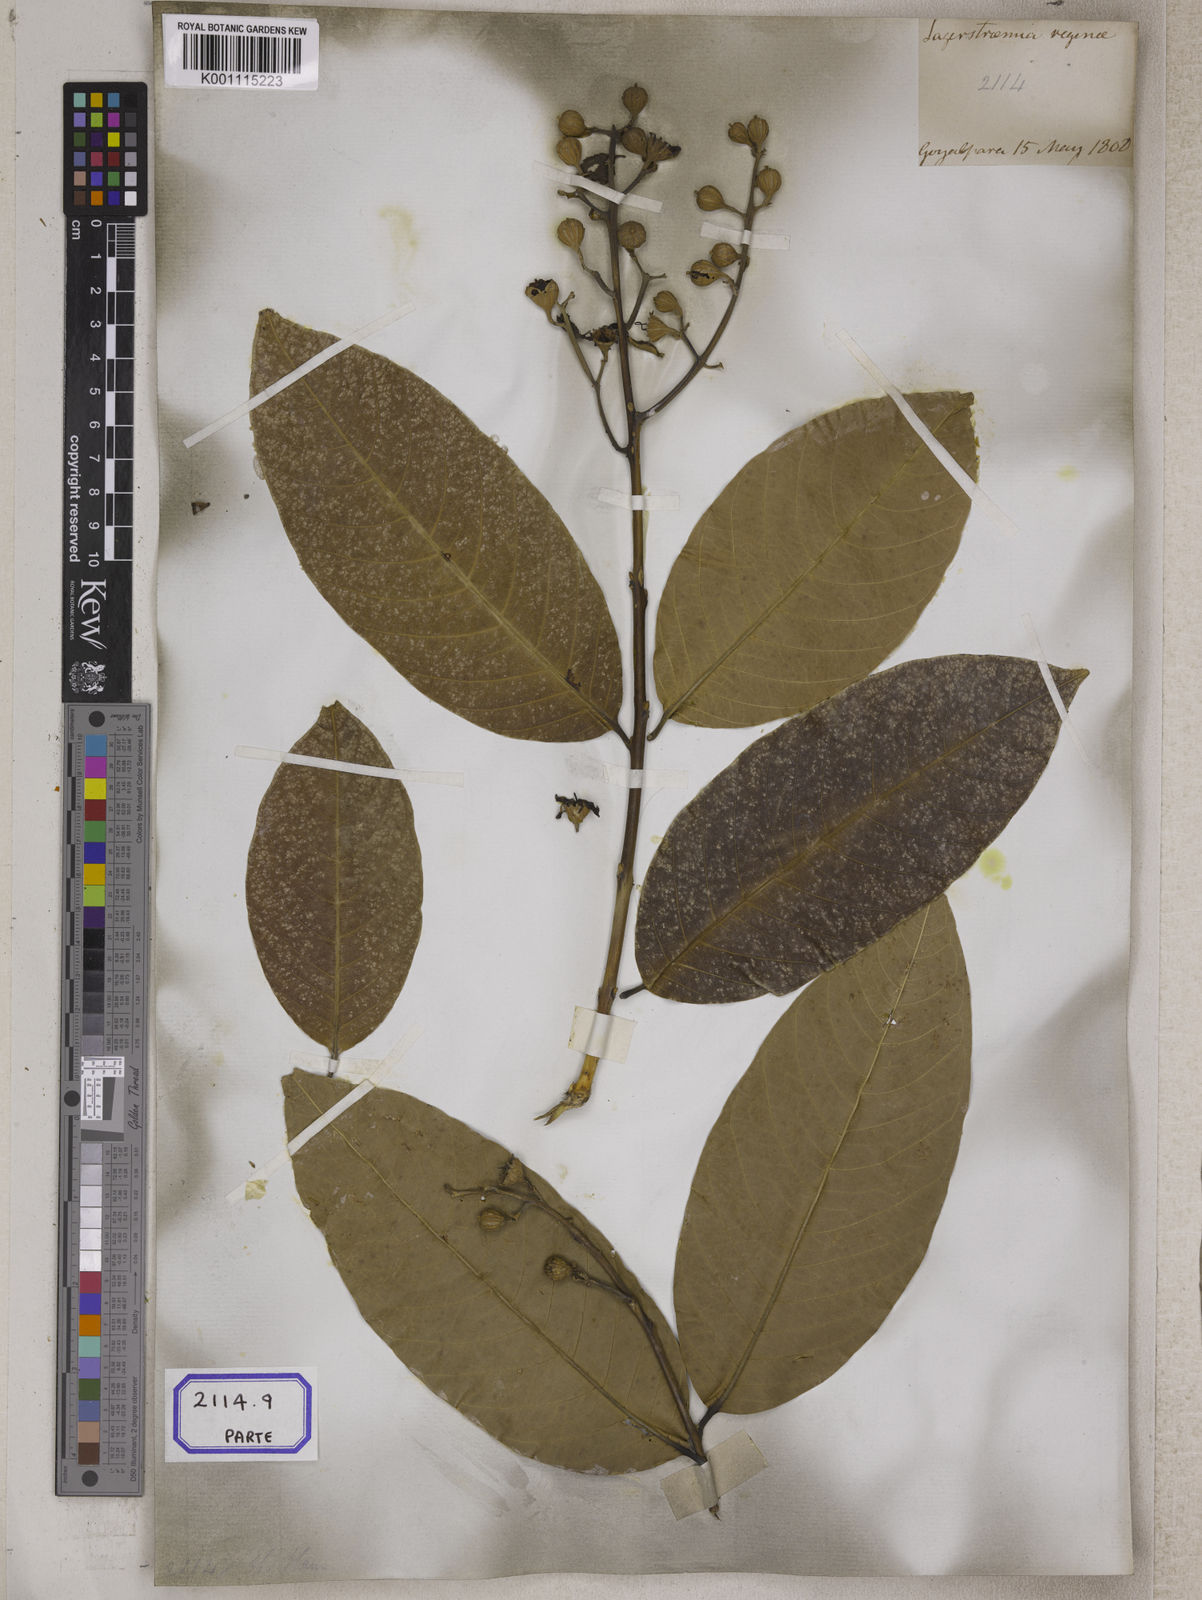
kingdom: Plantae
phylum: Tracheophyta
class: Magnoliopsida
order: Myrtales
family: Lythraceae
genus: Lagerstroemia
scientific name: Lagerstroemia
